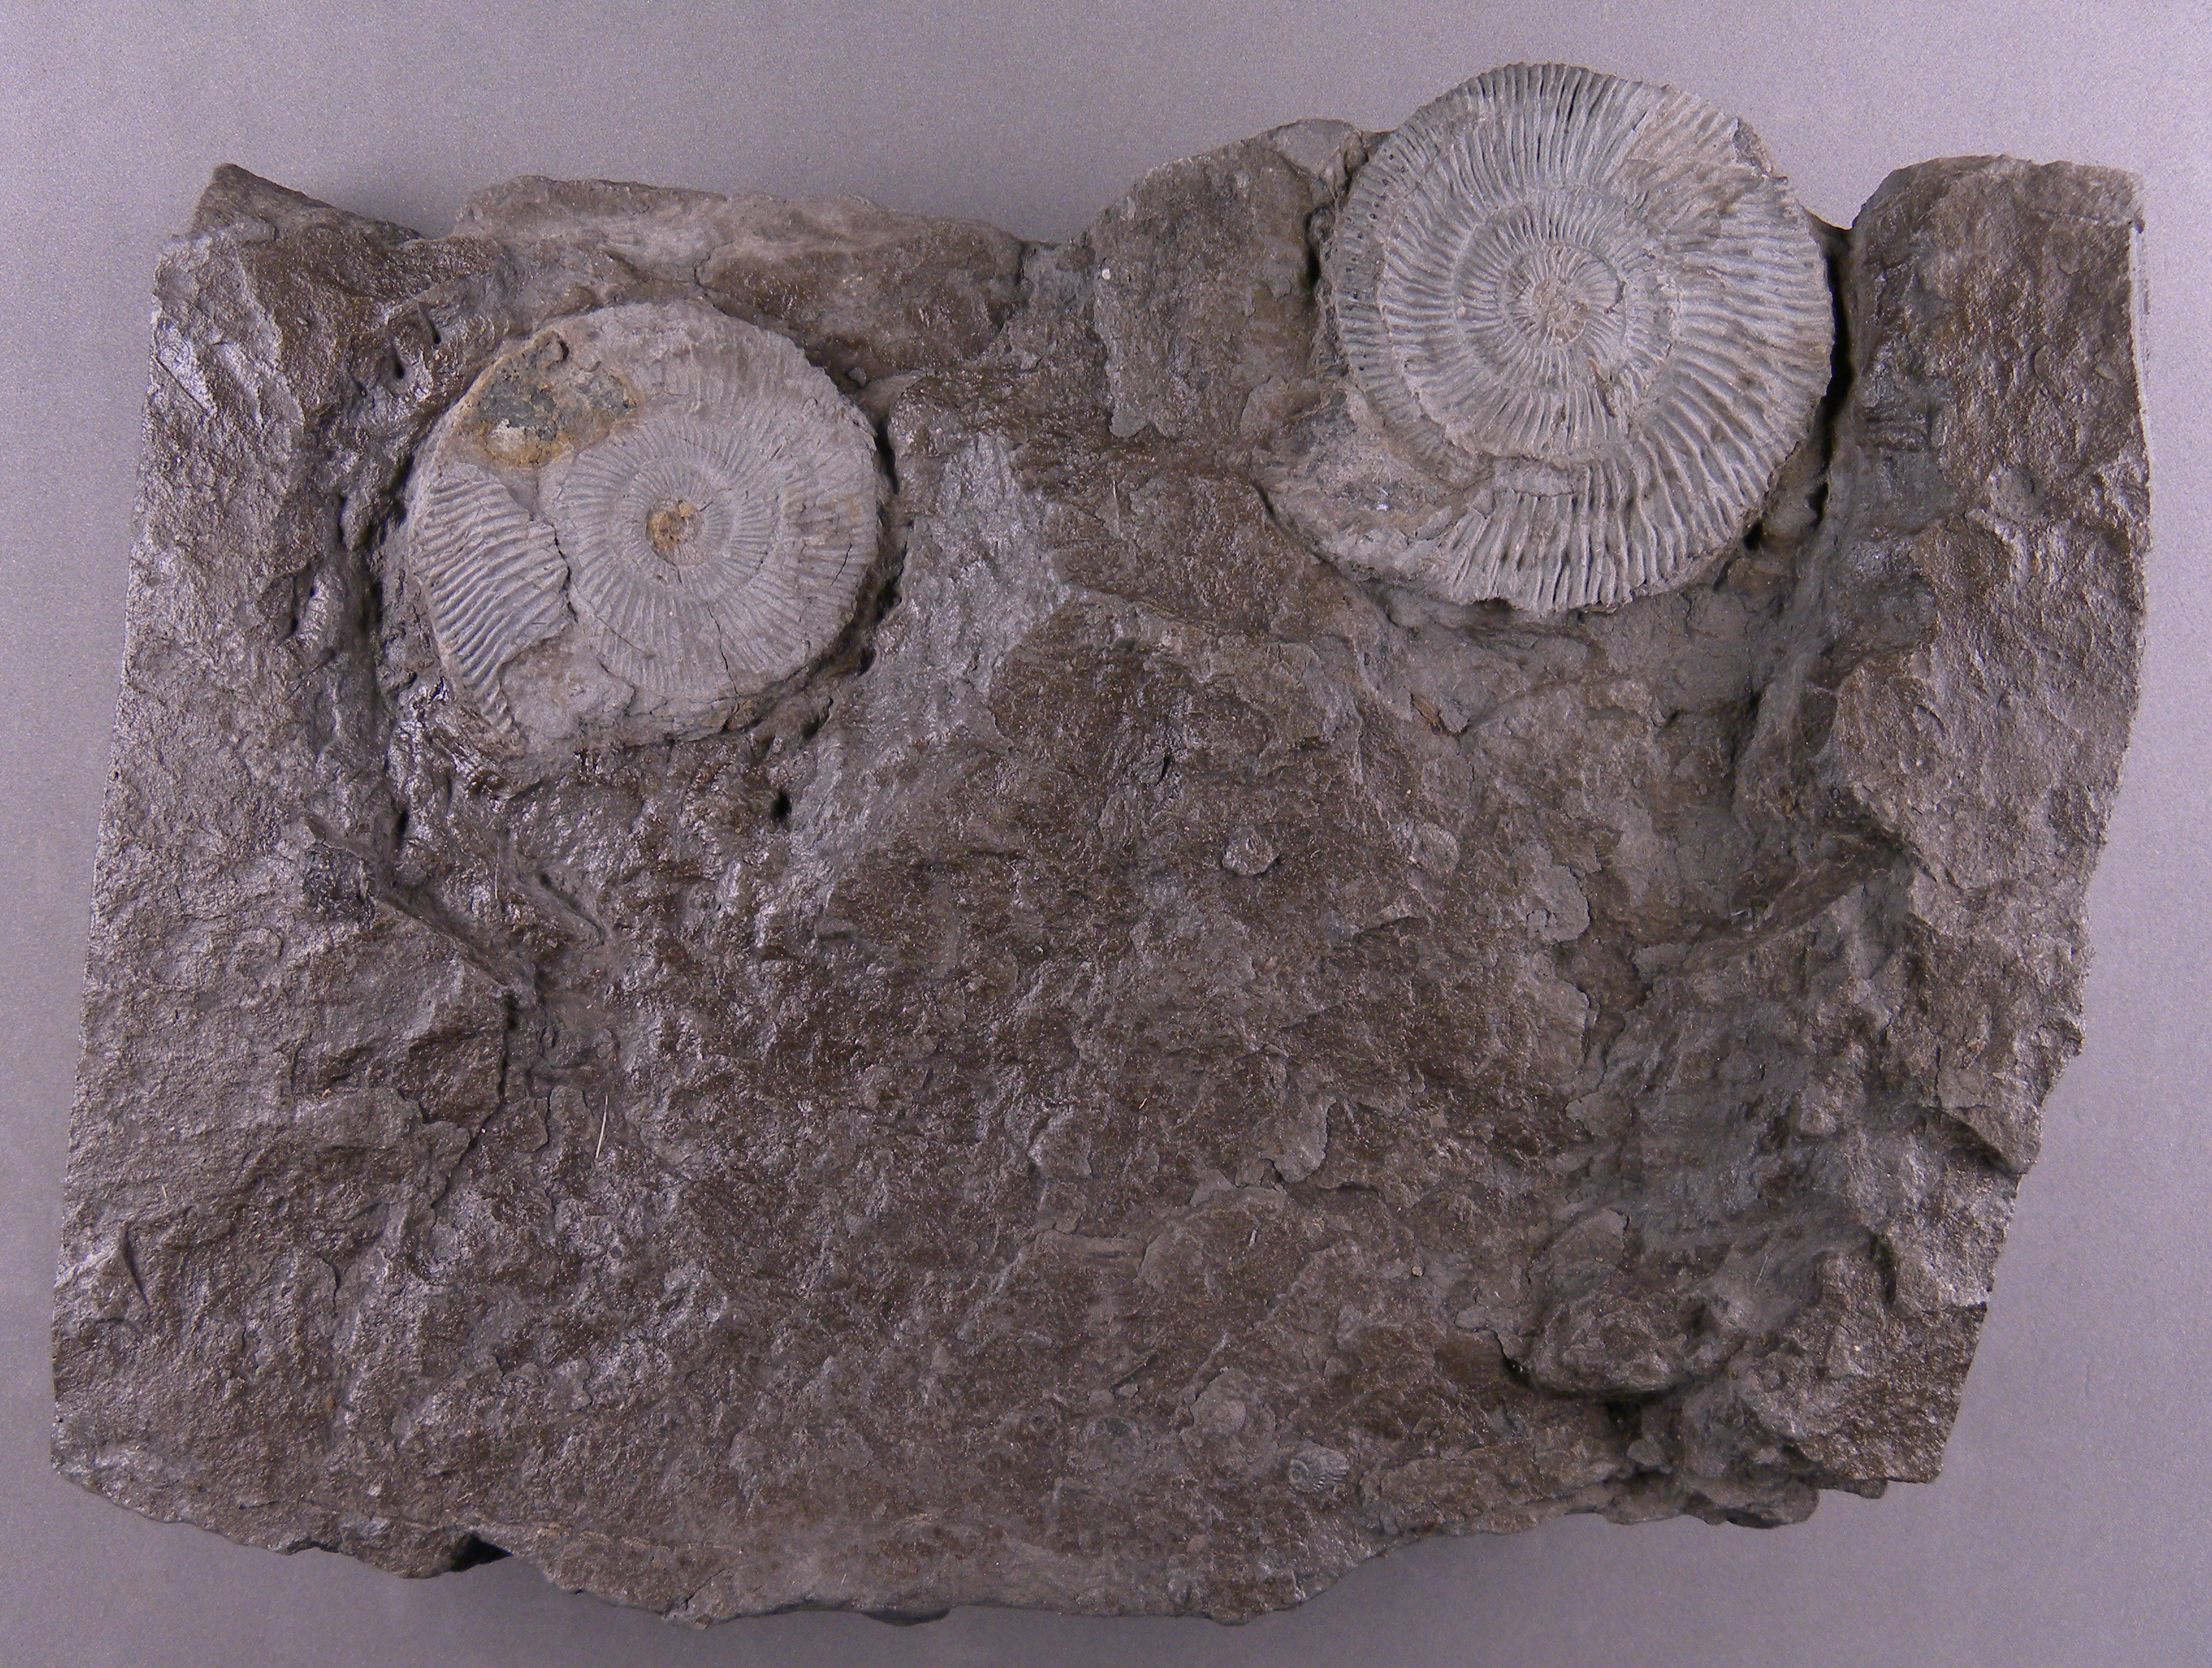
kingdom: Animalia
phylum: Mollusca
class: Cephalopoda
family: Dactylioceratidae
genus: Dactylioceras
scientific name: Dactylioceras
